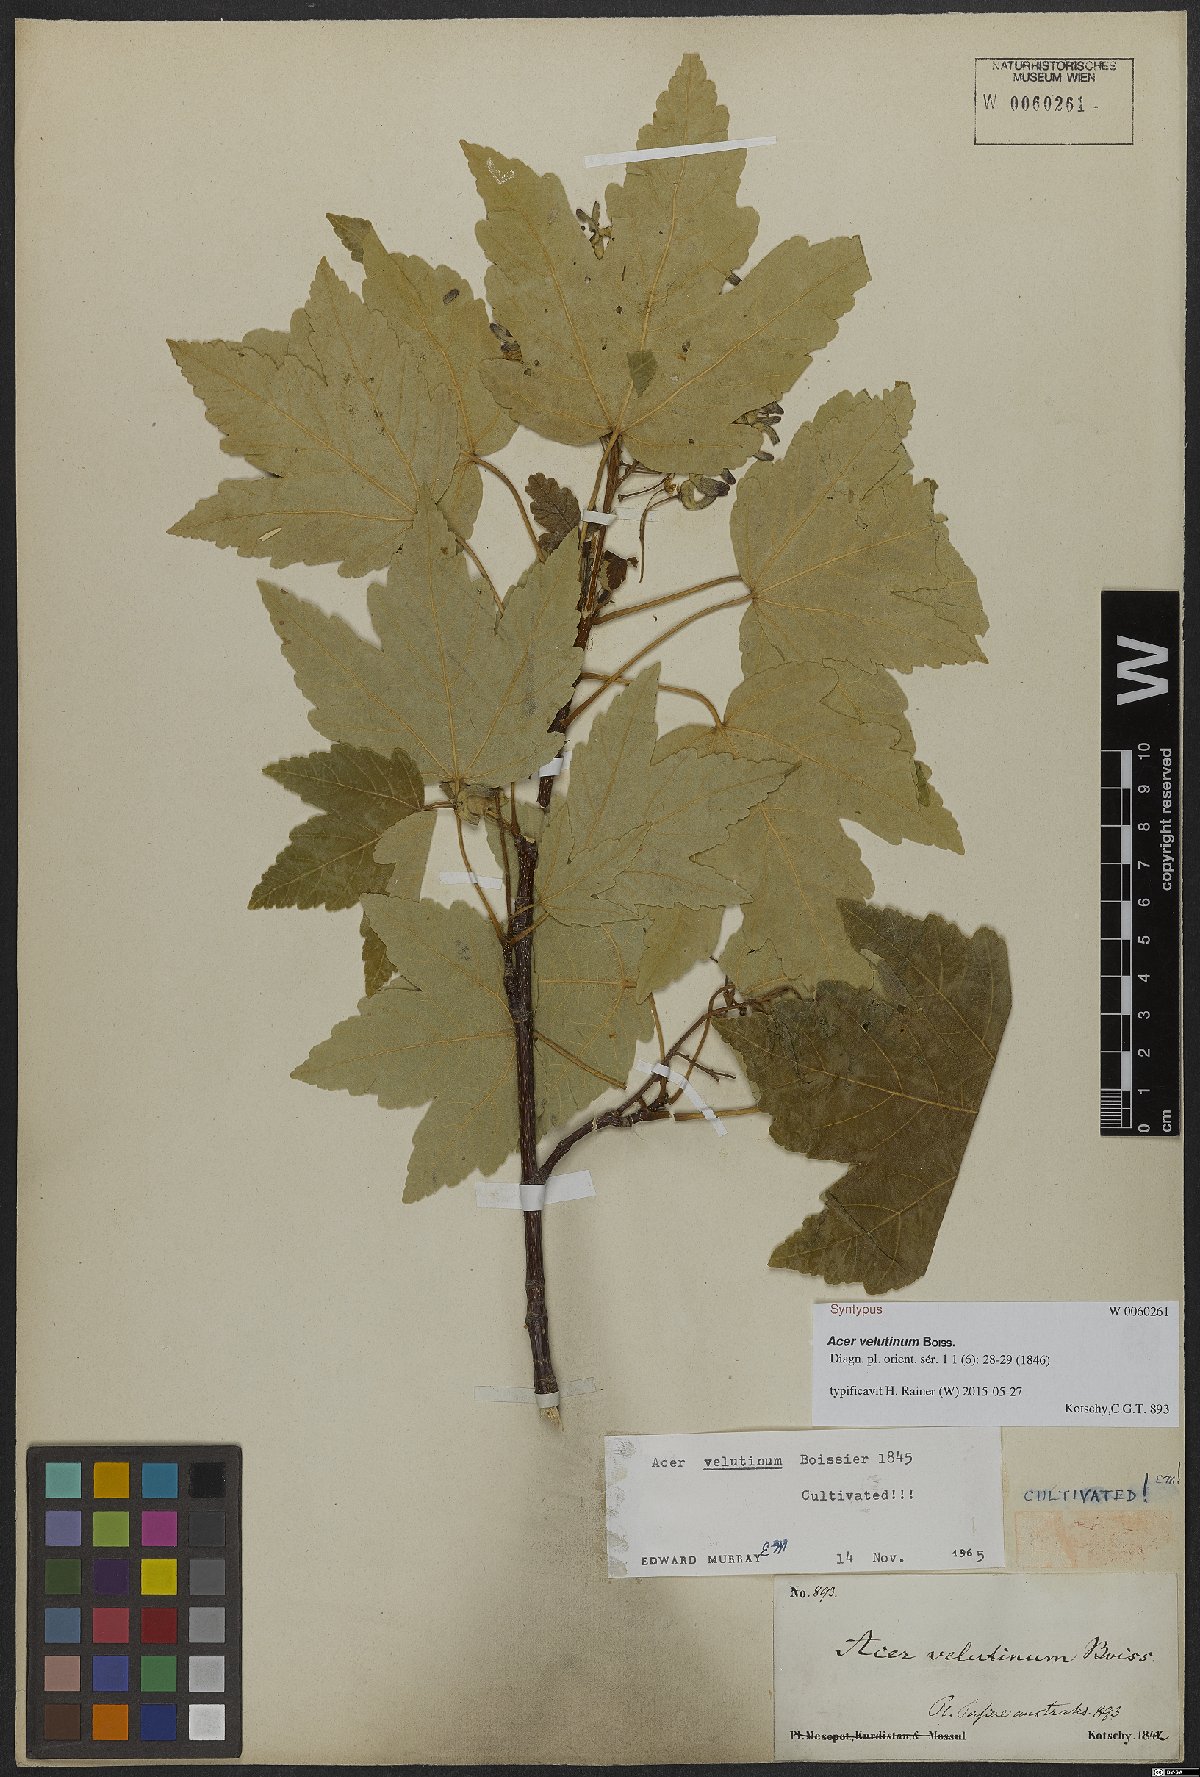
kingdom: Plantae
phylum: Tracheophyta
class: Magnoliopsida
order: Sapindales
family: Sapindaceae
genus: Acer
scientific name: Acer velutinum
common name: Velvet maple
